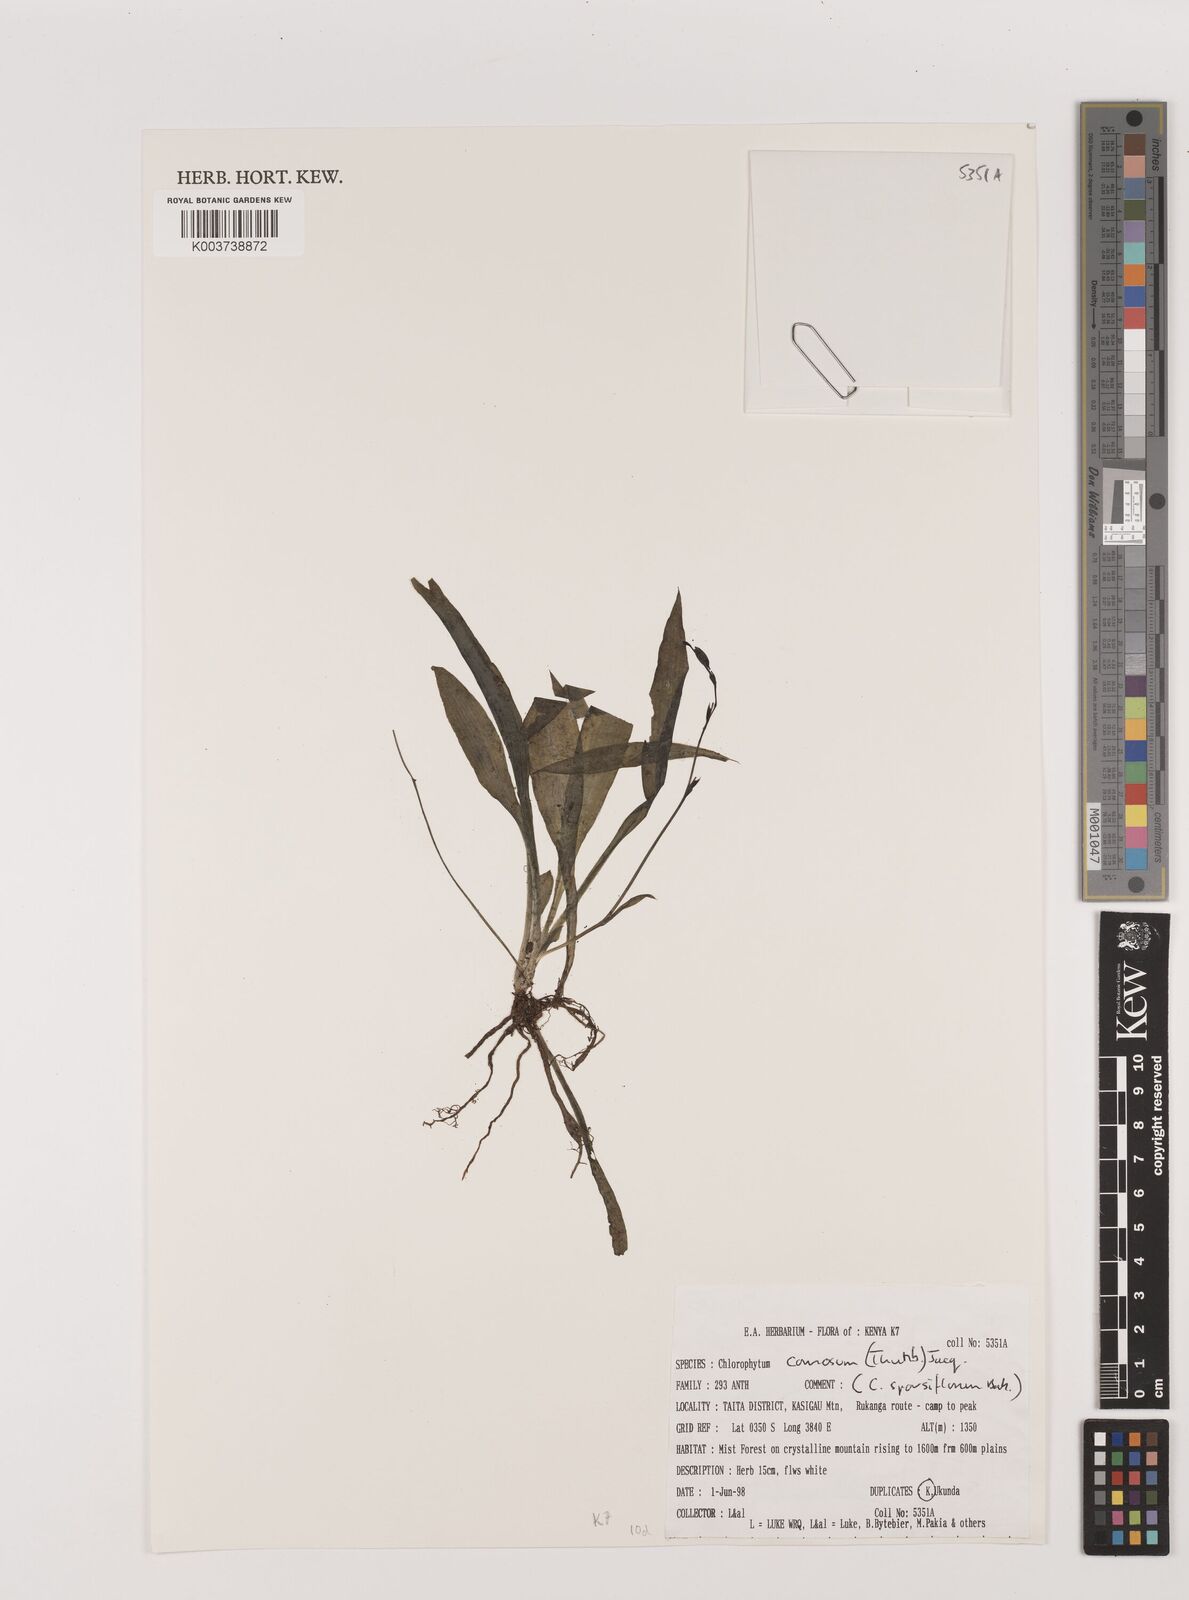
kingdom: Plantae
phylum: Tracheophyta
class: Liliopsida
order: Asparagales
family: Asparagaceae
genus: Chlorophytum
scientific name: Chlorophytum comosum
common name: Spider plant
